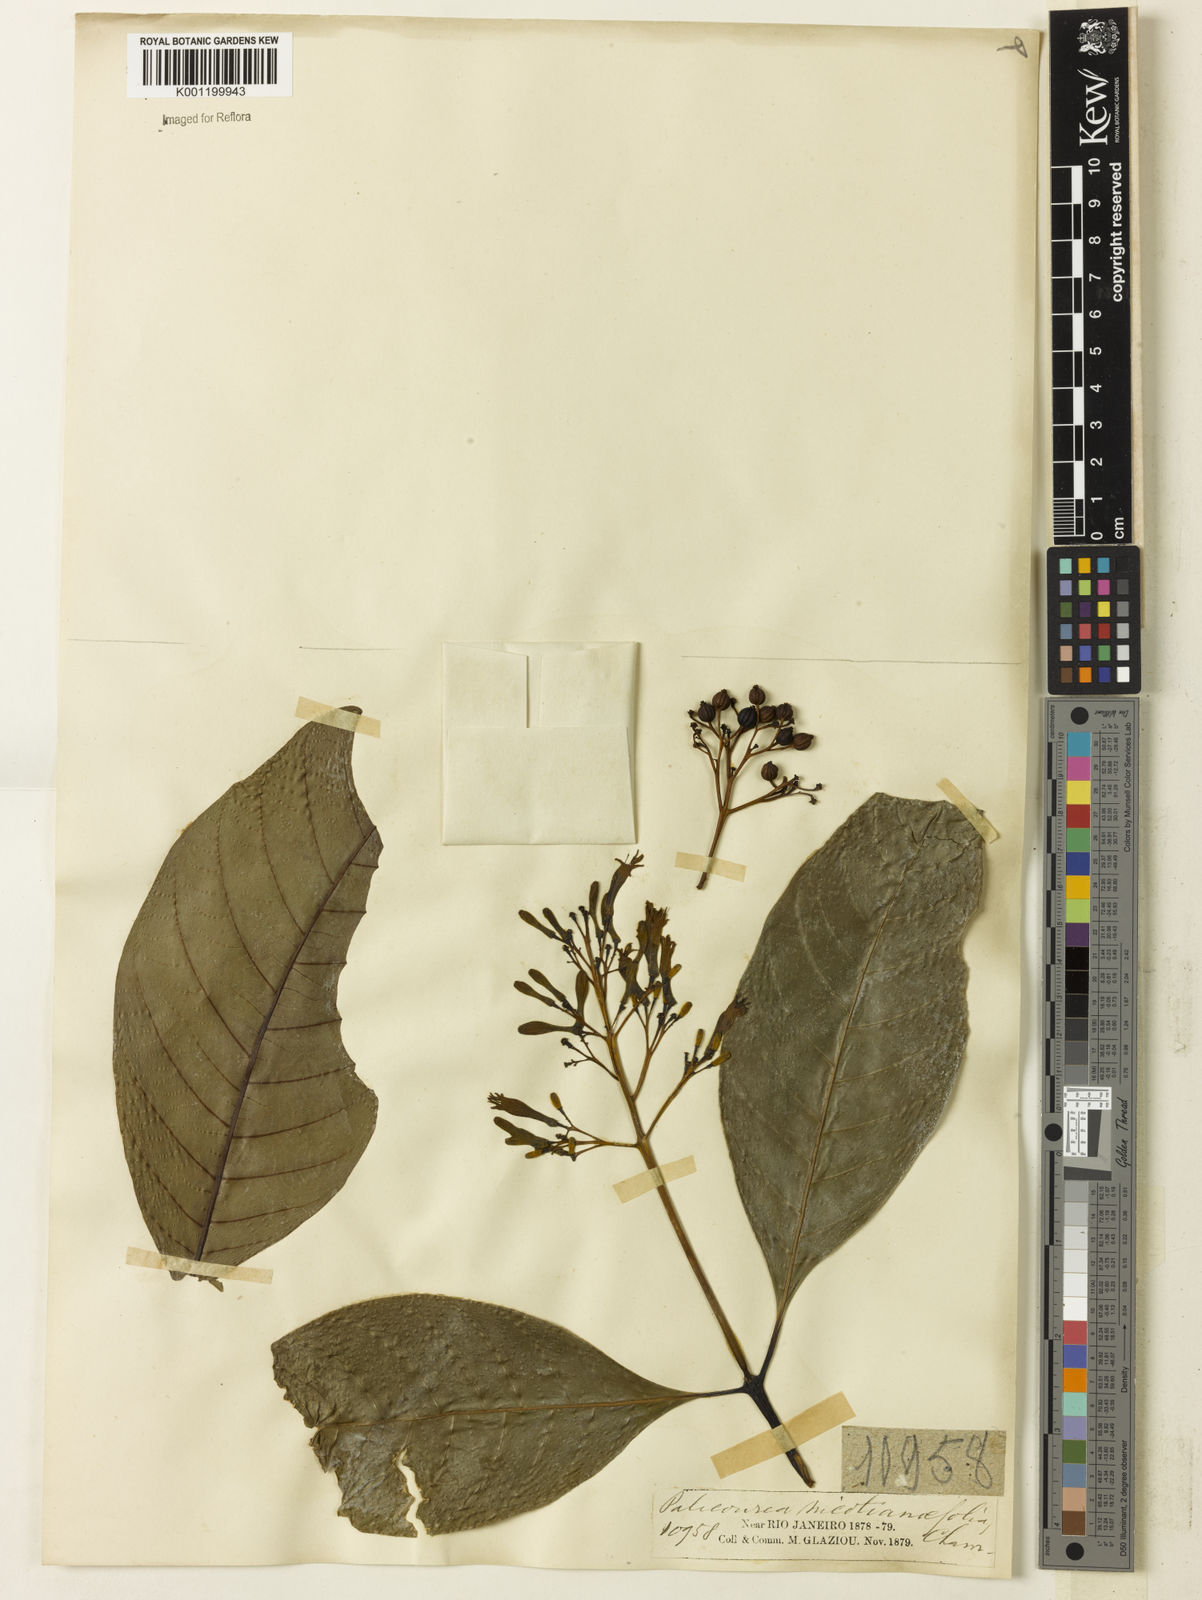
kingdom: Plantae
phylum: Tracheophyta
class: Magnoliopsida
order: Gentianales
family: Rubiaceae
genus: Palicourea
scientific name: Palicourea macrobotrys
